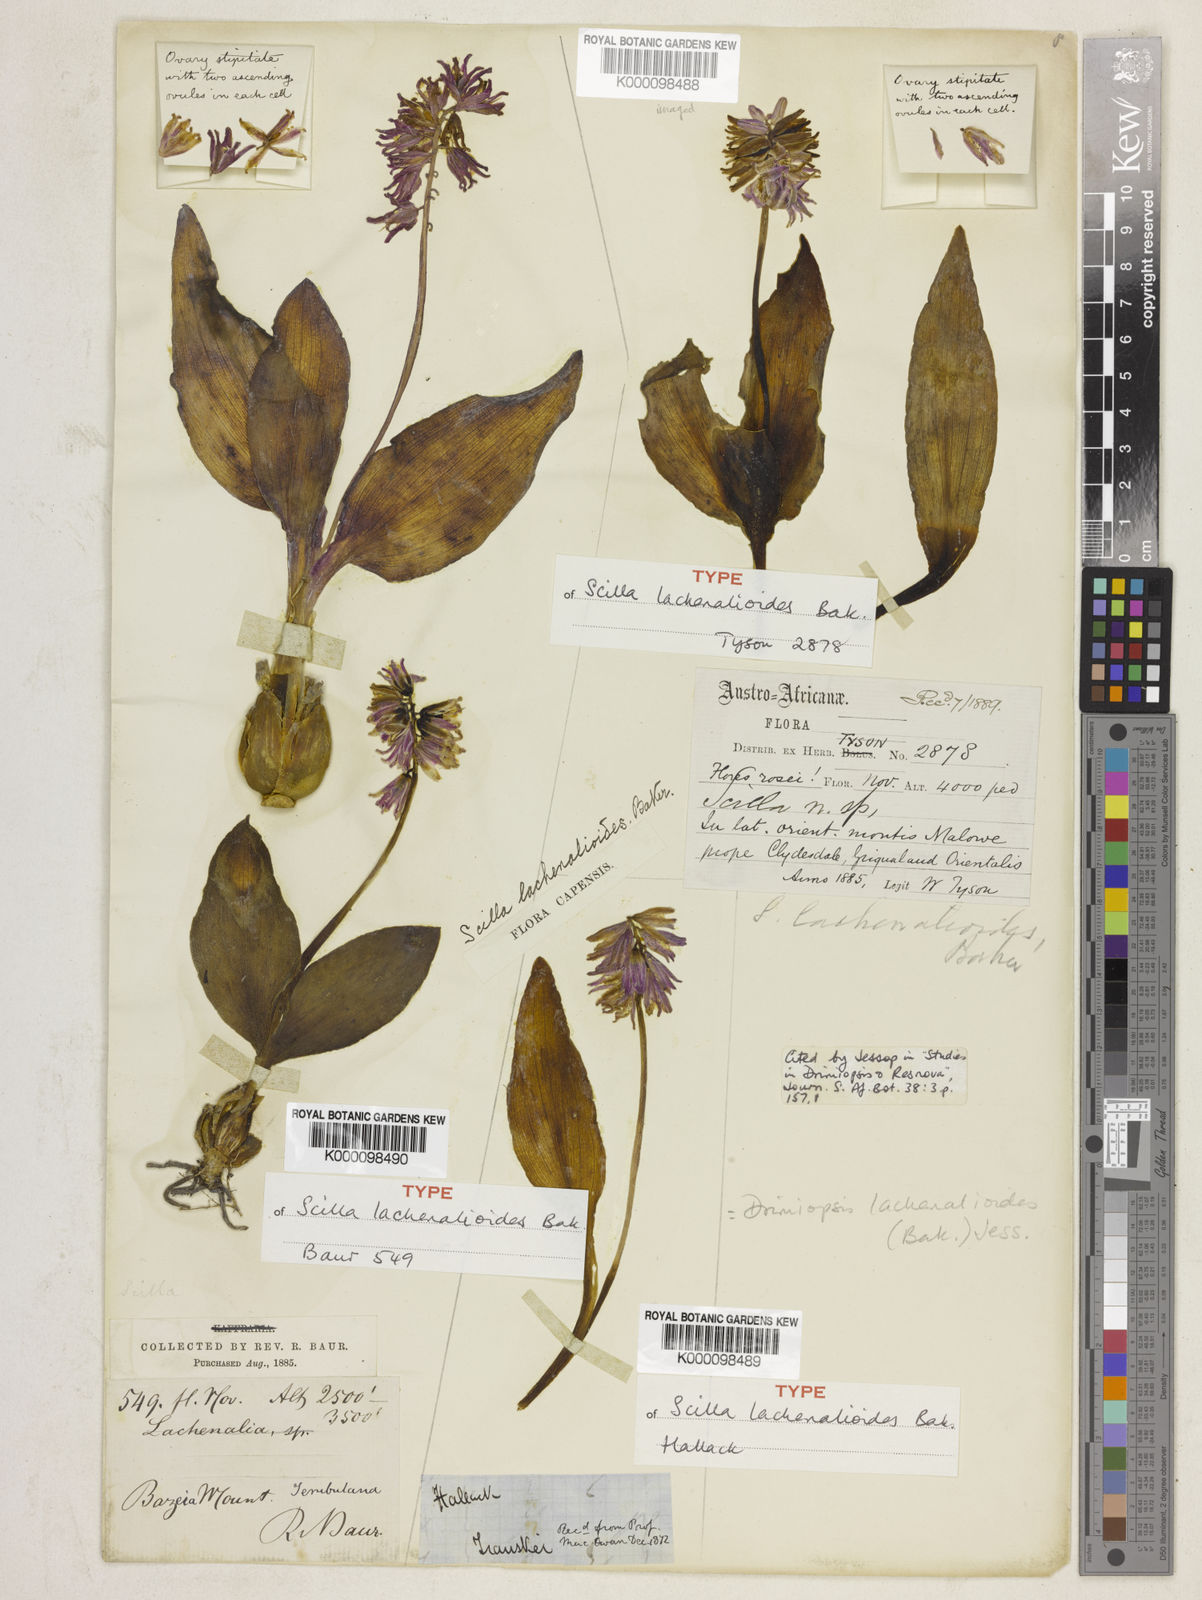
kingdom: Plantae
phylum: Tracheophyta
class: Liliopsida
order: Asparagales
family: Asparagaceae
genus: Resnova
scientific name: Resnova humifusa
